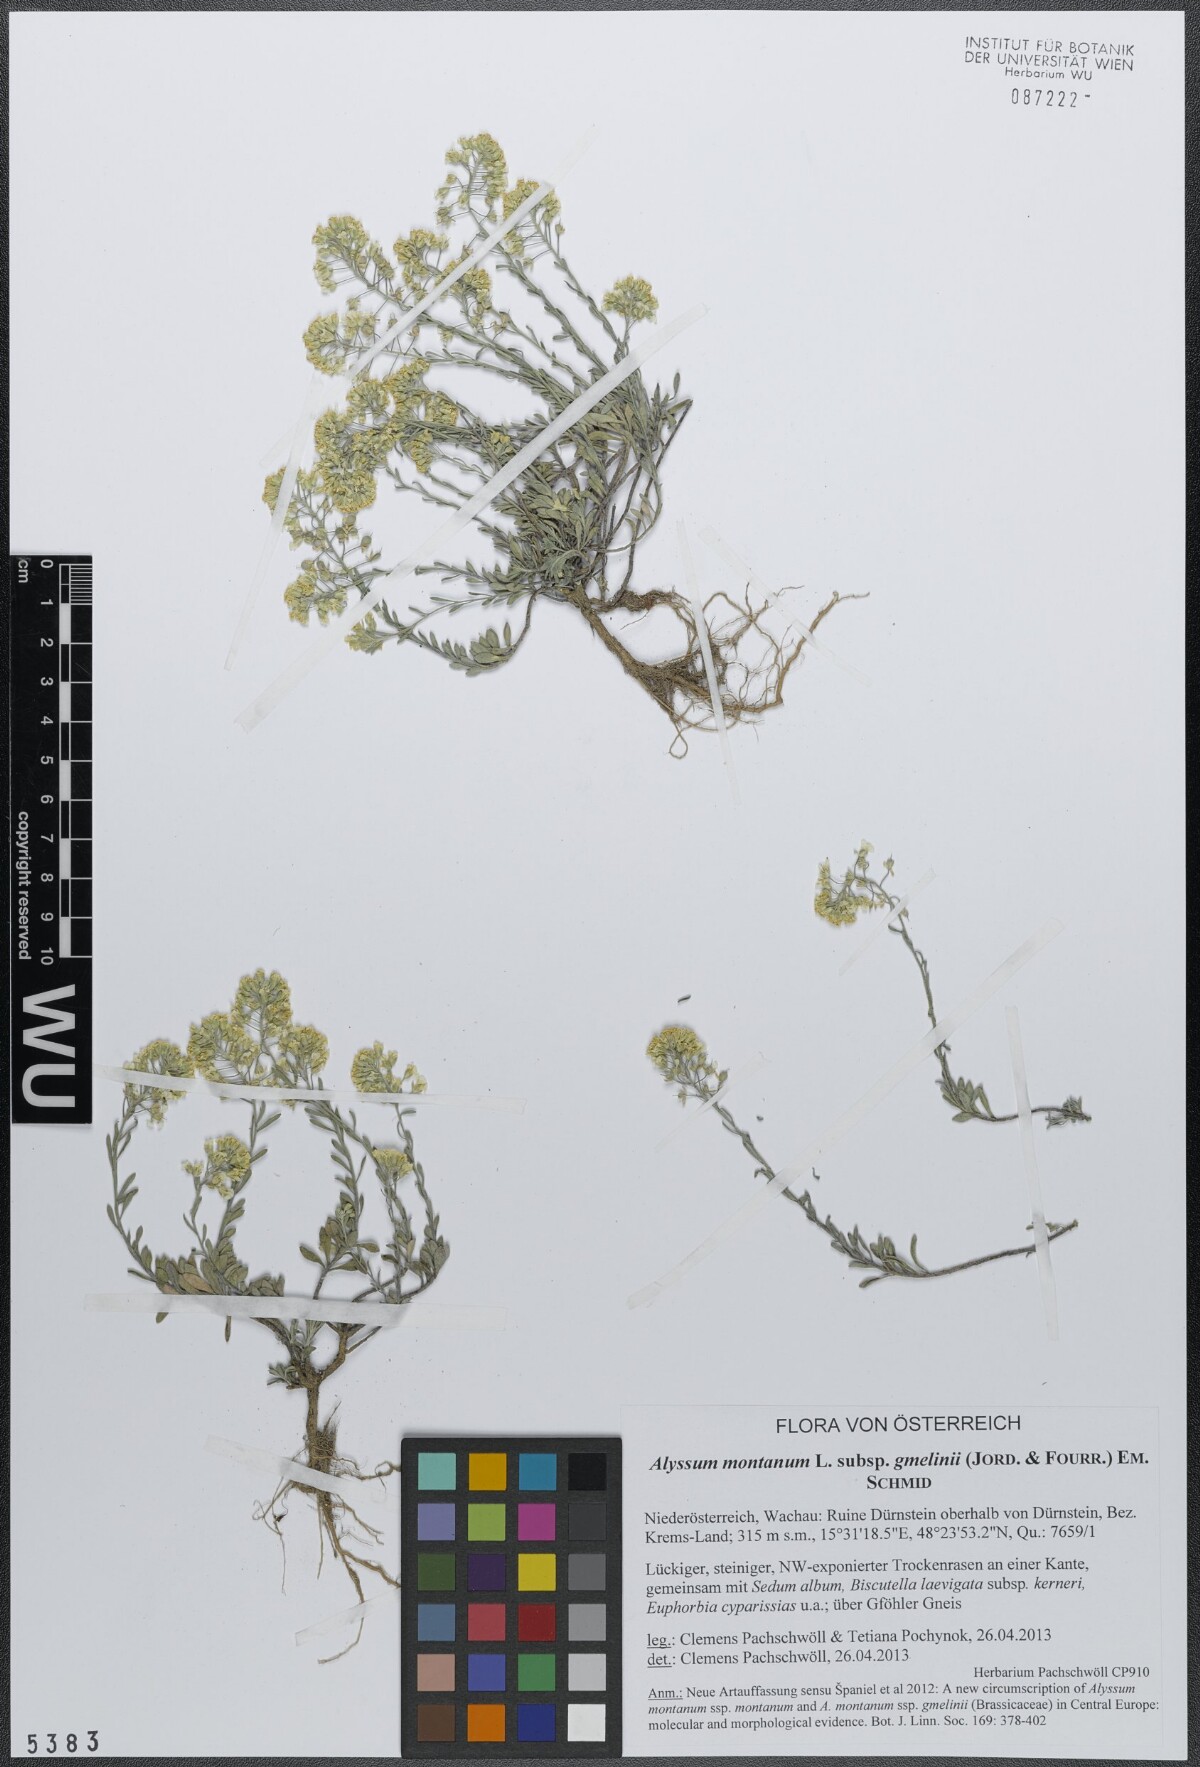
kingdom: Plantae
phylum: Tracheophyta
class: Magnoliopsida
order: Brassicales
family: Brassicaceae
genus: Alyssum
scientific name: Alyssum gmelinii
